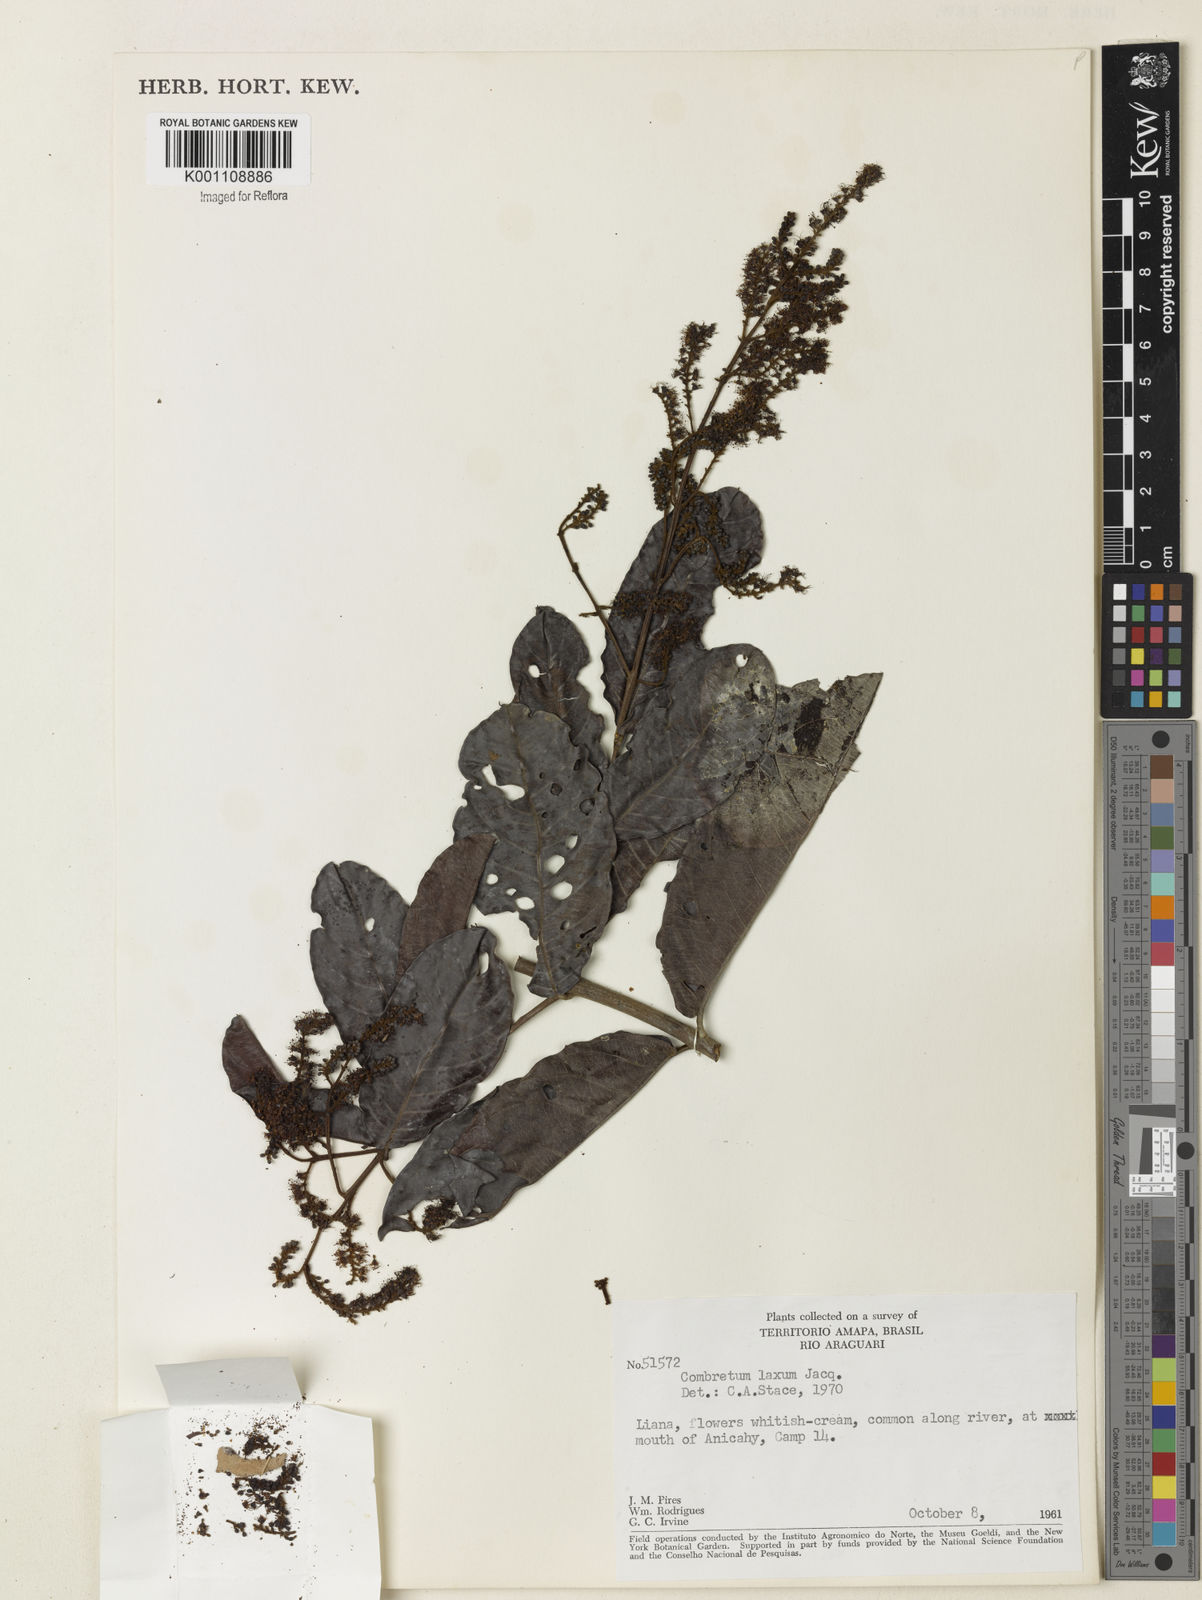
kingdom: Plantae
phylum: Tracheophyta
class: Magnoliopsida
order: Myrtales
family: Combretaceae
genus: Combretum
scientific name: Combretum laxum
